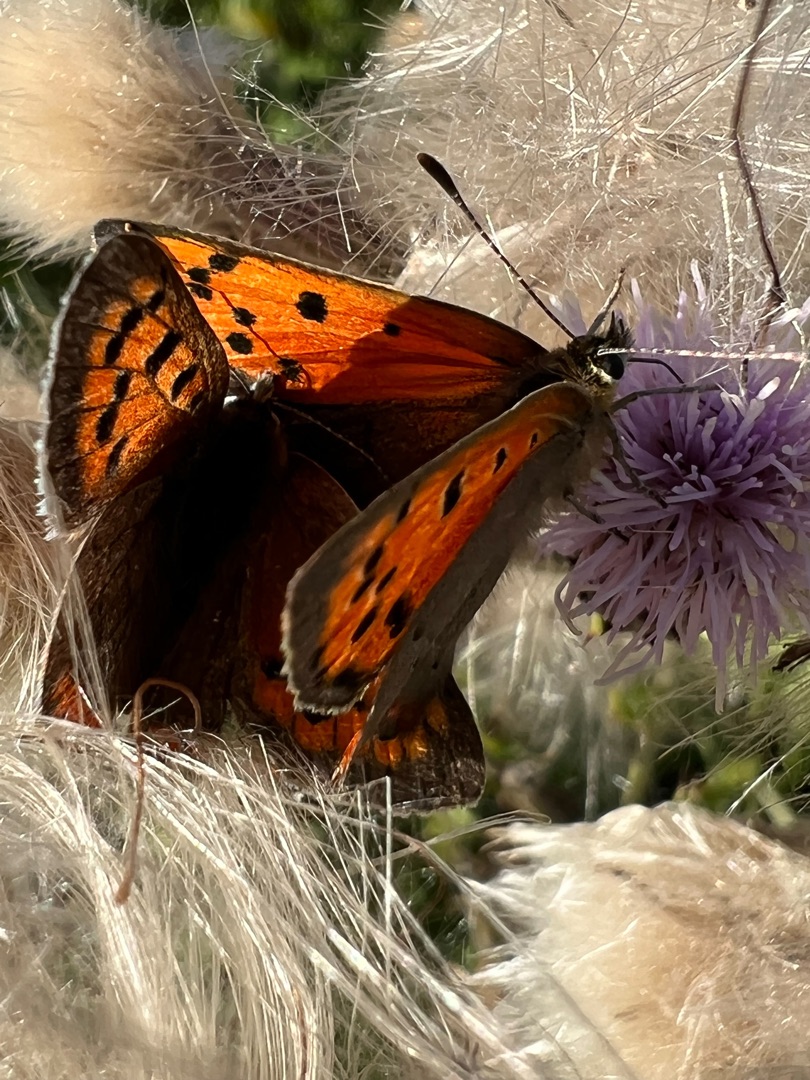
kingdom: Animalia
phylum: Arthropoda
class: Insecta
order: Lepidoptera
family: Lycaenidae
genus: Lycaena
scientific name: Lycaena phlaeas
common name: Lille ildfugl
